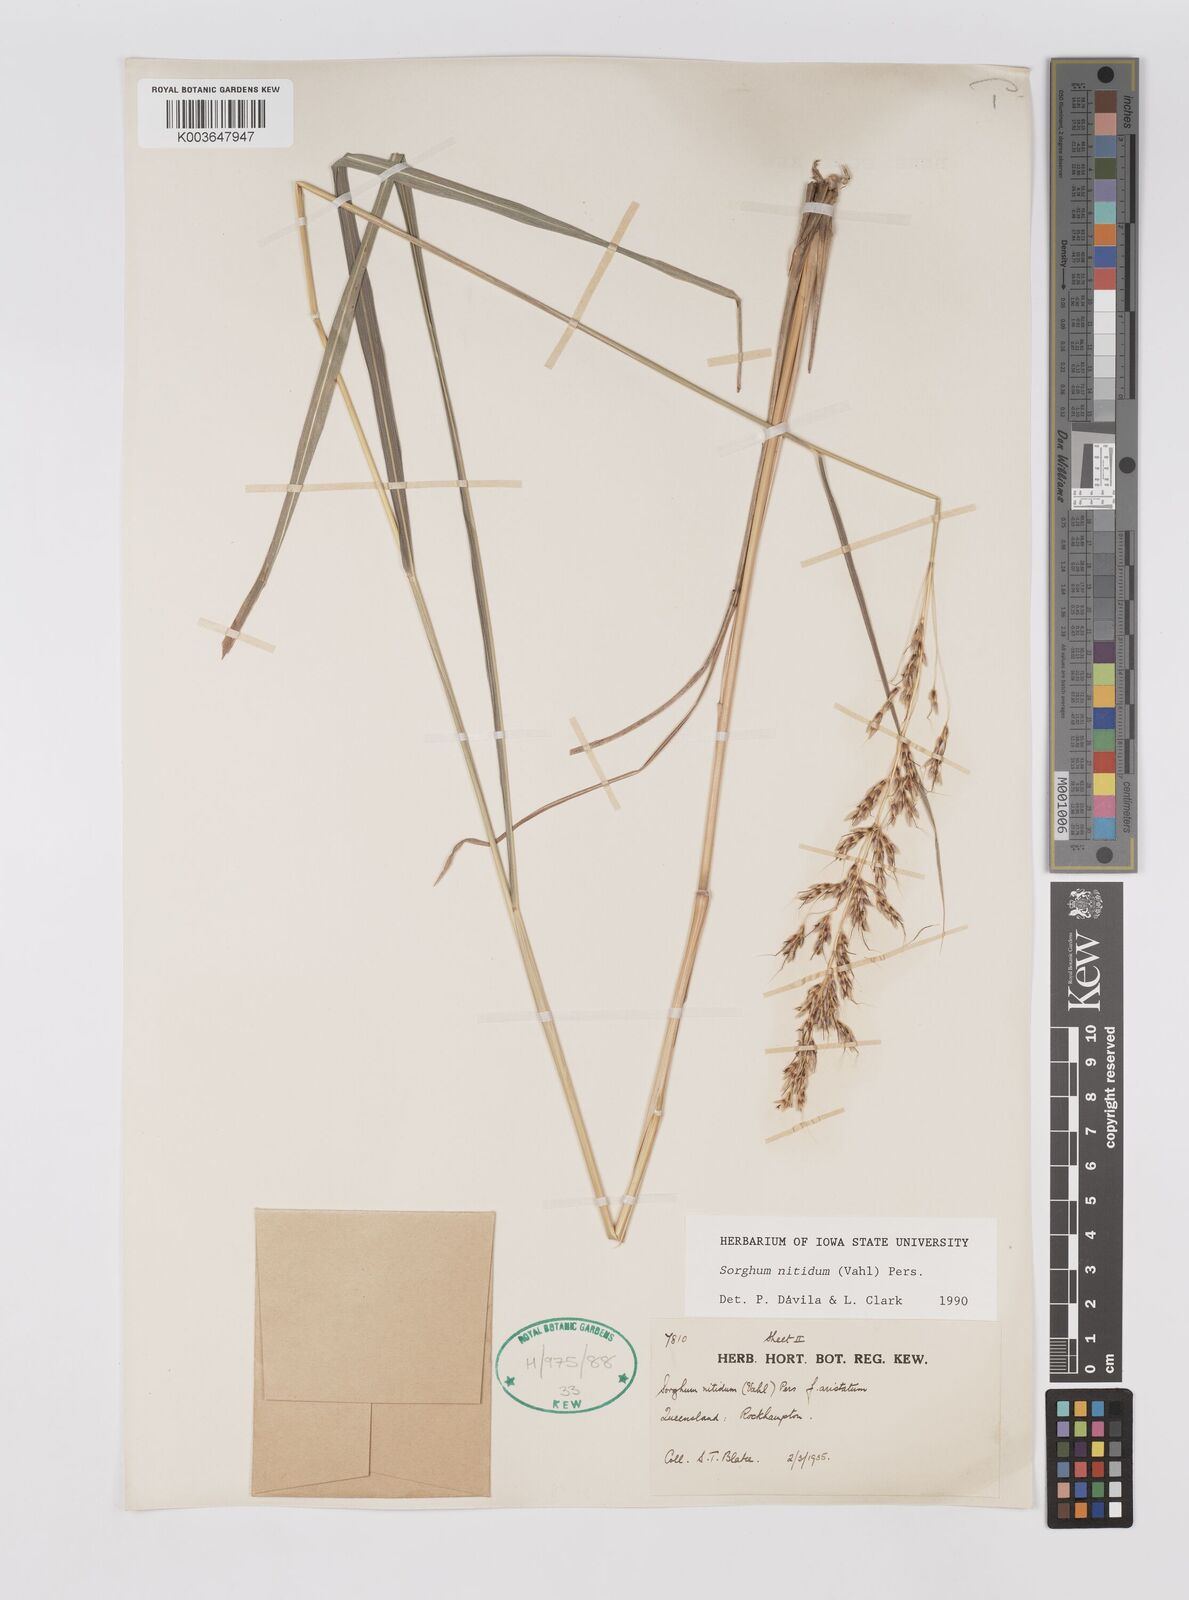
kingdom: Plantae
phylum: Tracheophyta
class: Liliopsida
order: Poales
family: Poaceae
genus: Sorghum
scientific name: Sorghum nitidum
